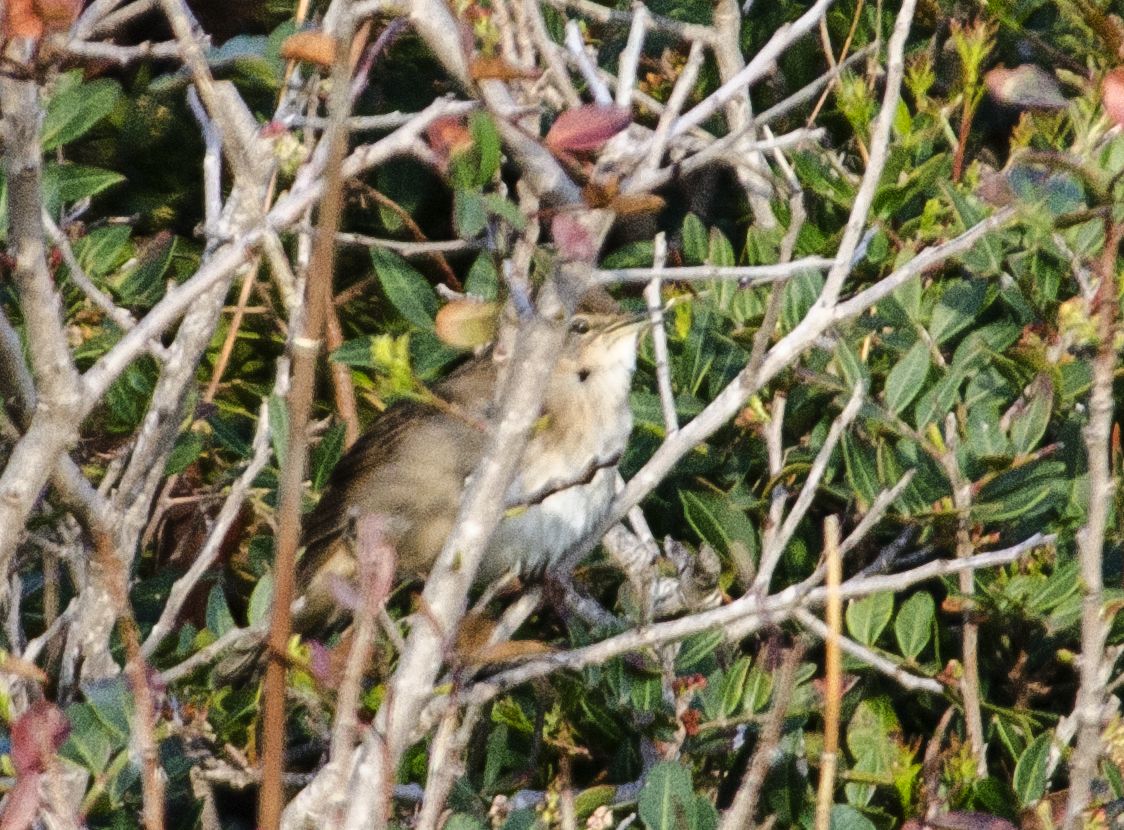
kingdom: Animalia
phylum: Chordata
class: Aves
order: Passeriformes
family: Locustellidae
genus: Locustella
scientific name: Locustella luscinioides
